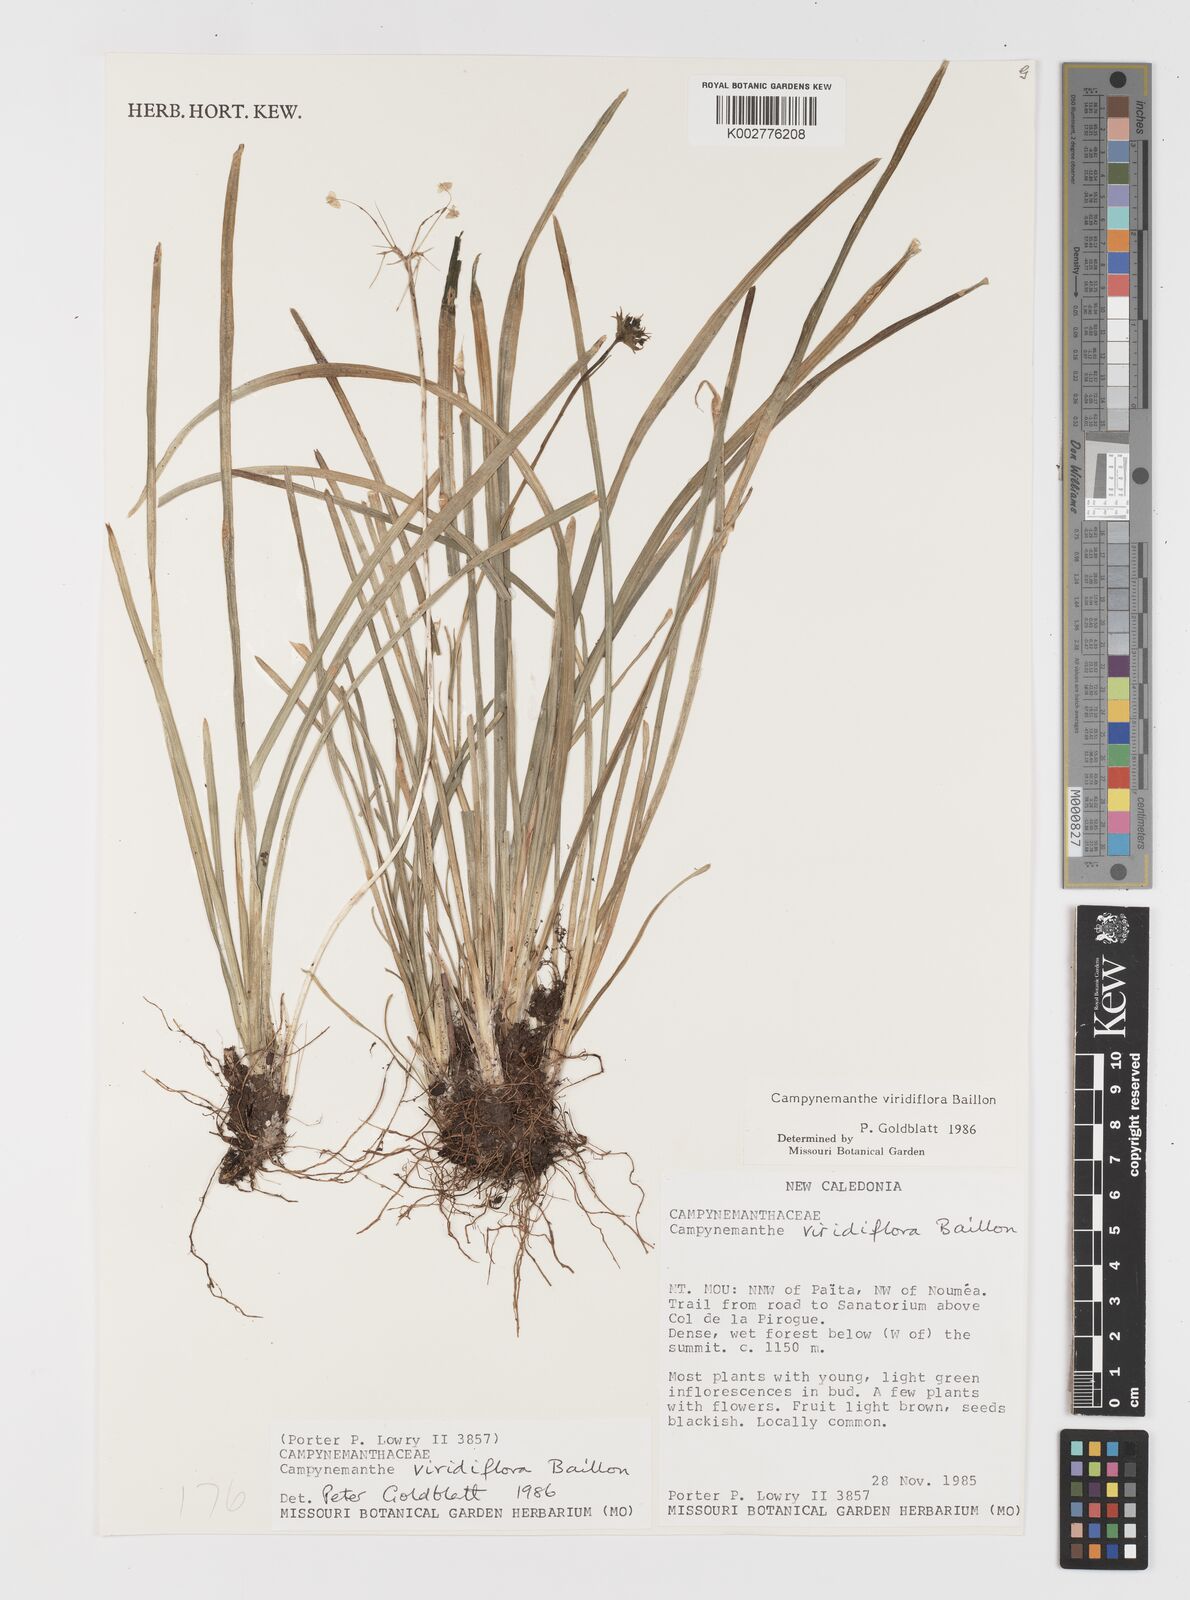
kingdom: Plantae
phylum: Tracheophyta
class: Liliopsida
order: Liliales
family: Campynemataceae
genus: Campynemanthe
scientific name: Campynemanthe viridiflora
